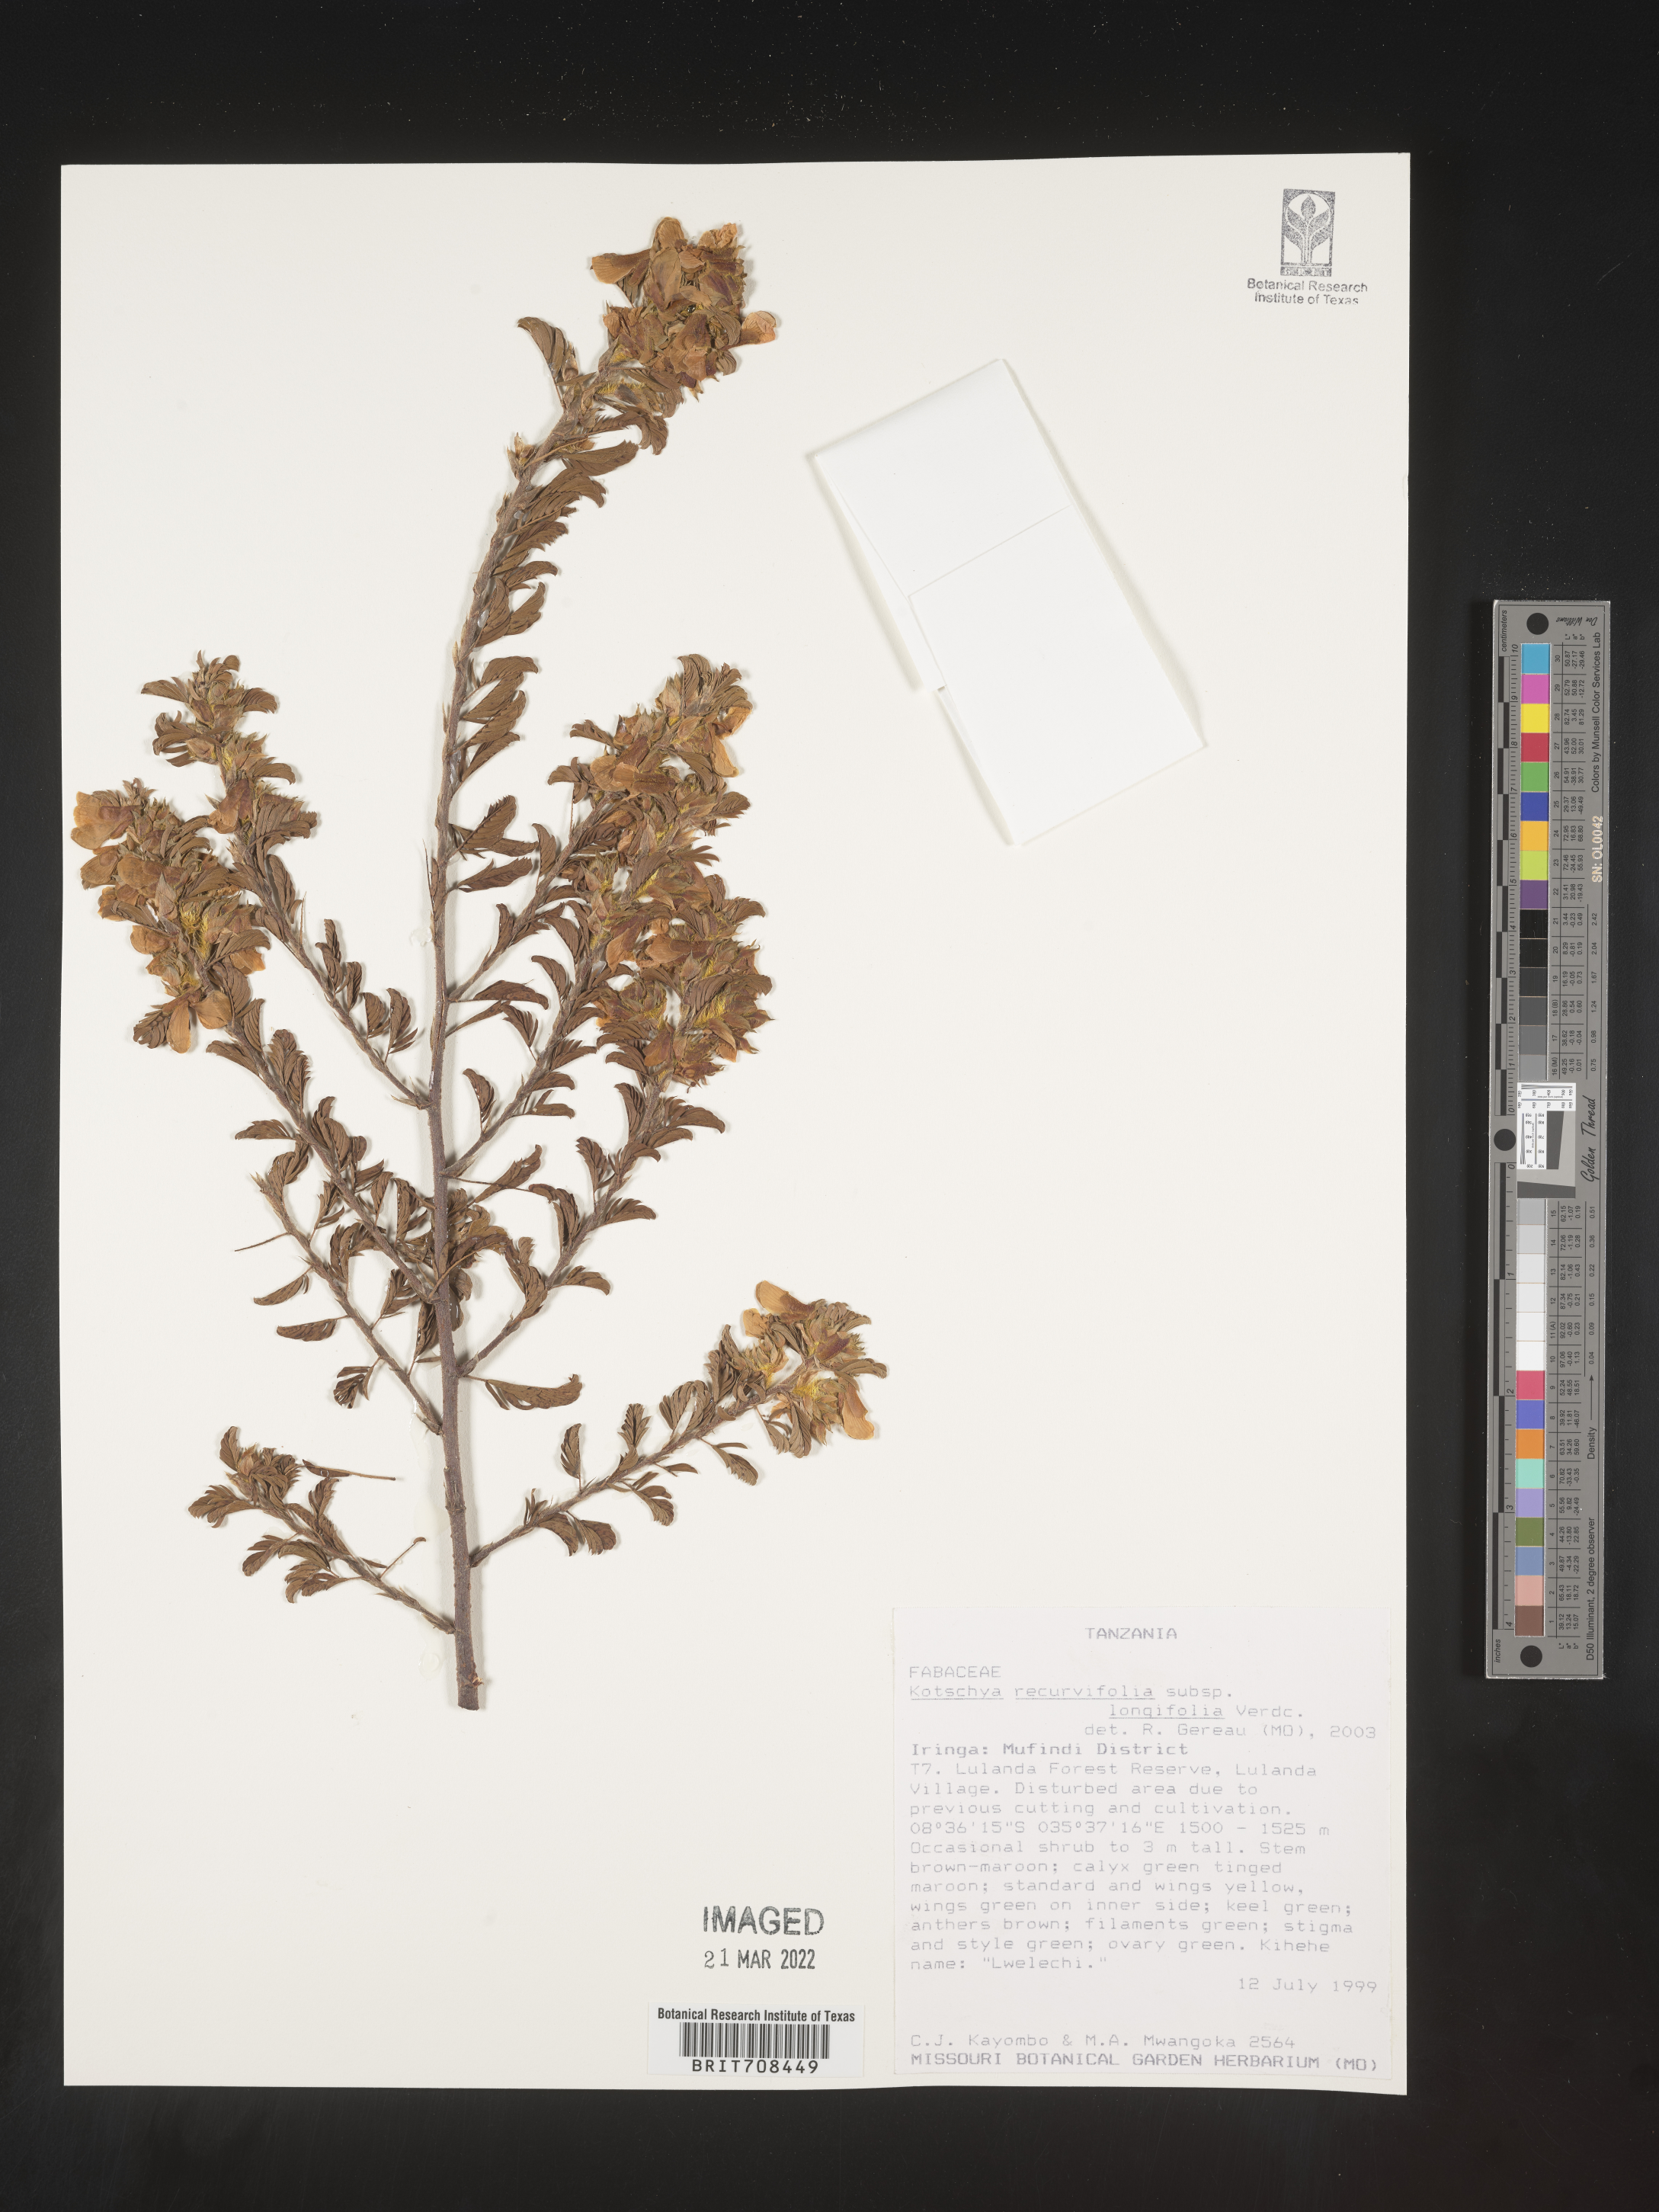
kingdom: Plantae
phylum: Tracheophyta
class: Magnoliopsida
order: Fabales
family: Fabaceae
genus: Kotschya
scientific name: Kotschya
